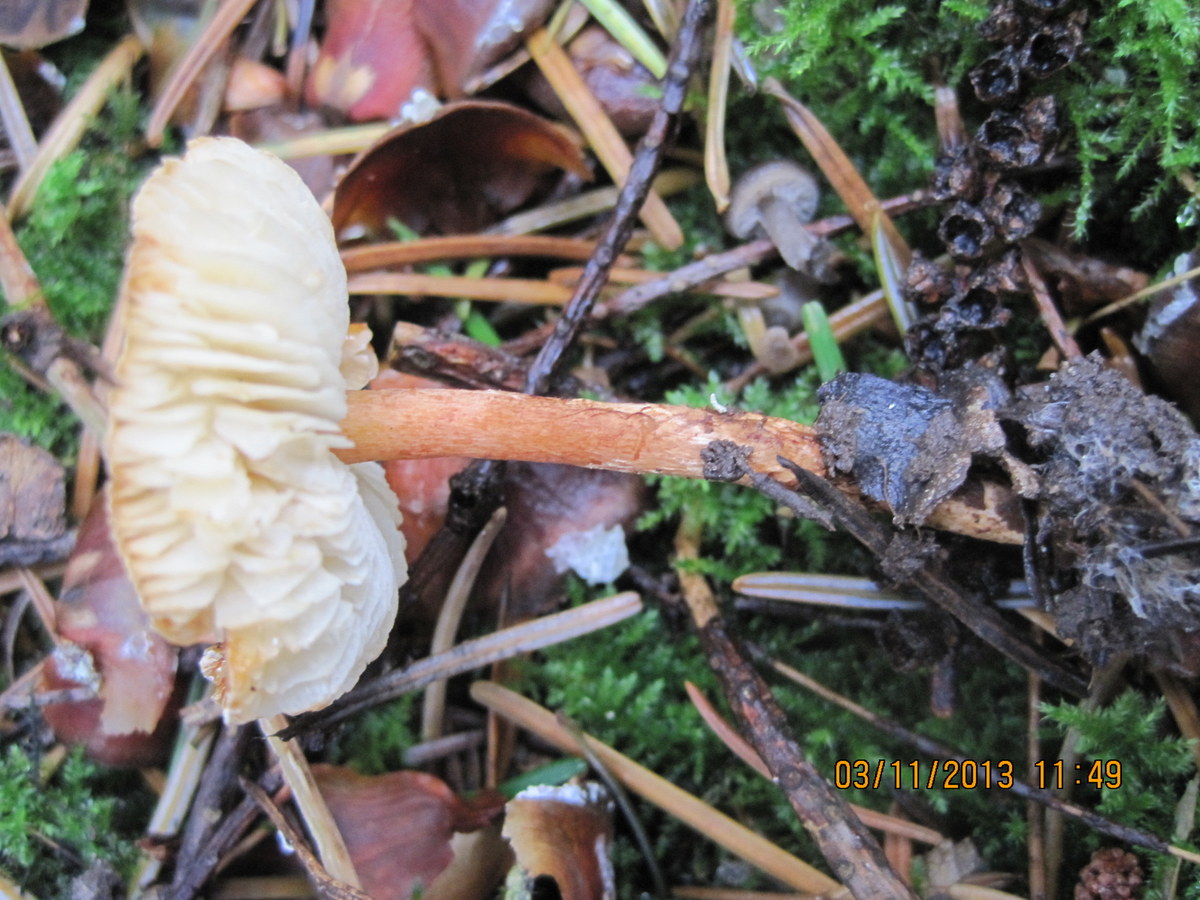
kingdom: Fungi
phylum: Basidiomycota
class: Agaricomycetes
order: Agaricales
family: Agaricaceae
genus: Lepiota
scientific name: Lepiota castanea
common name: kastaniebrun parasolhat
